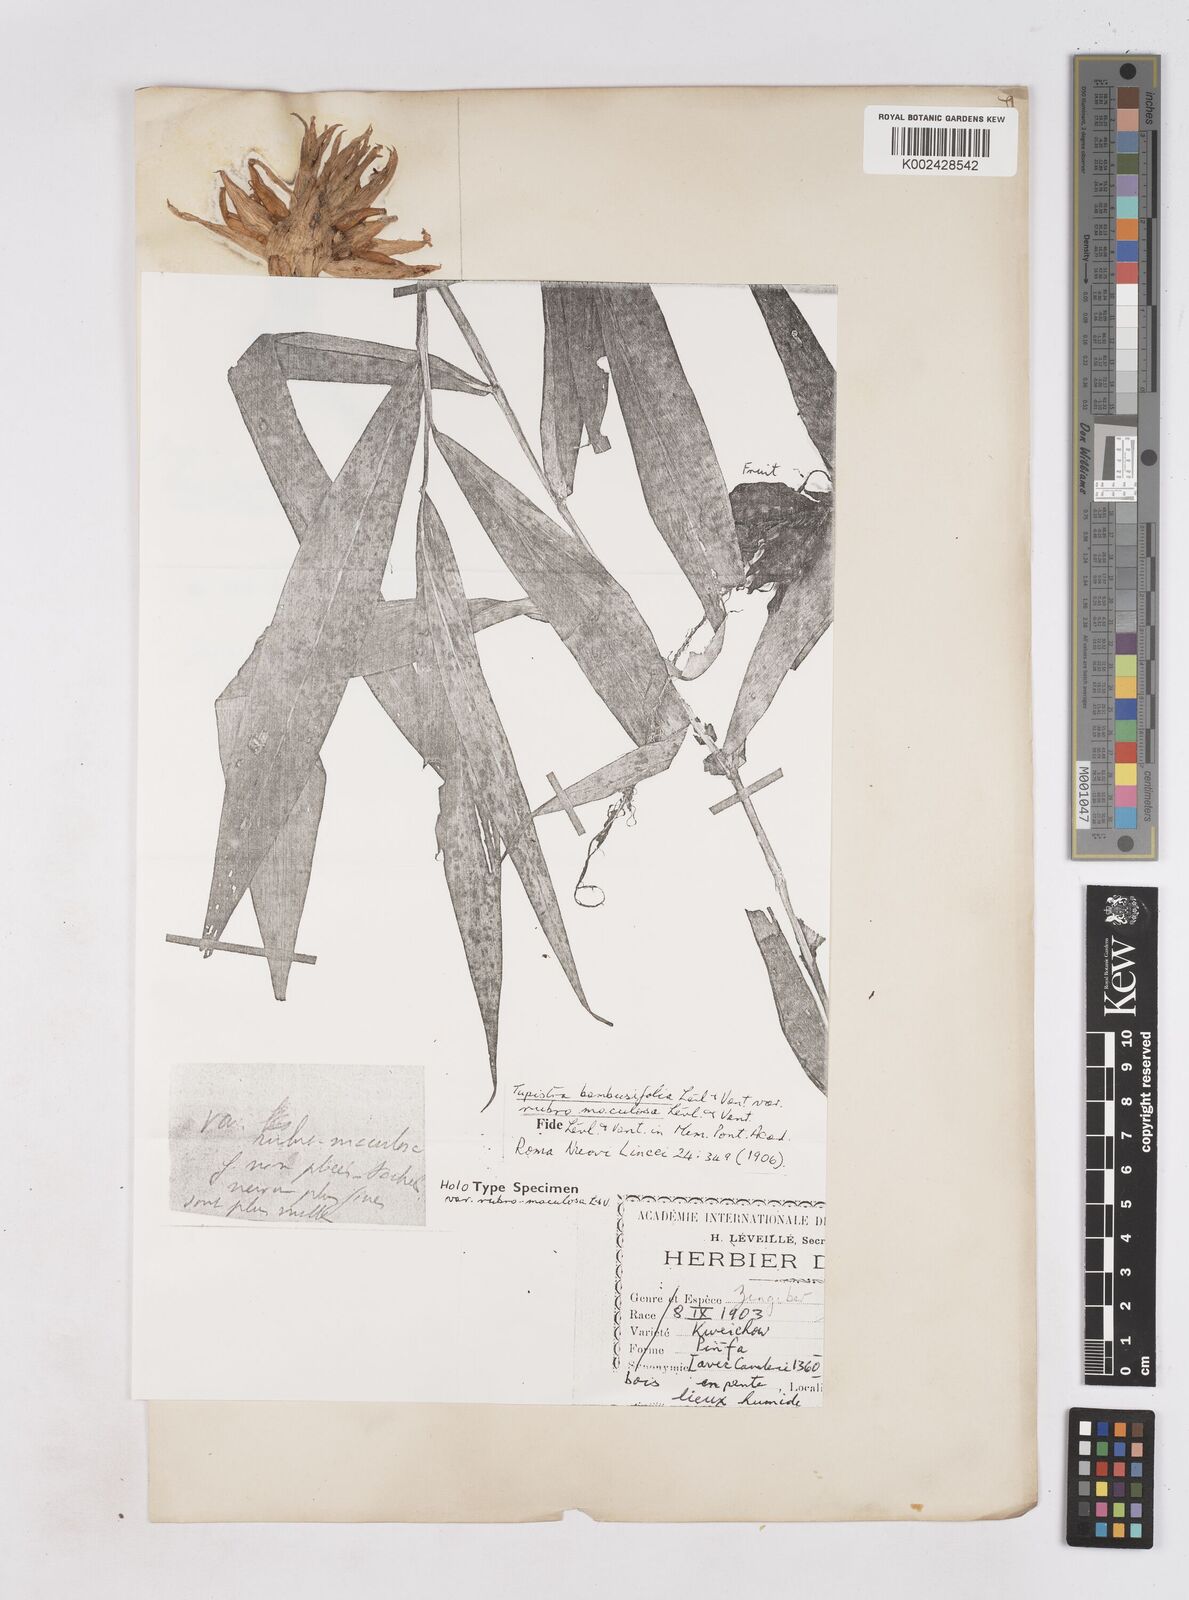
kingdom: Plantae
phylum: Tracheophyta
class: Liliopsida
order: Zingiberales
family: Zingiberaceae
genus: Zingiber
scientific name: Zingiber pleiostachyum
